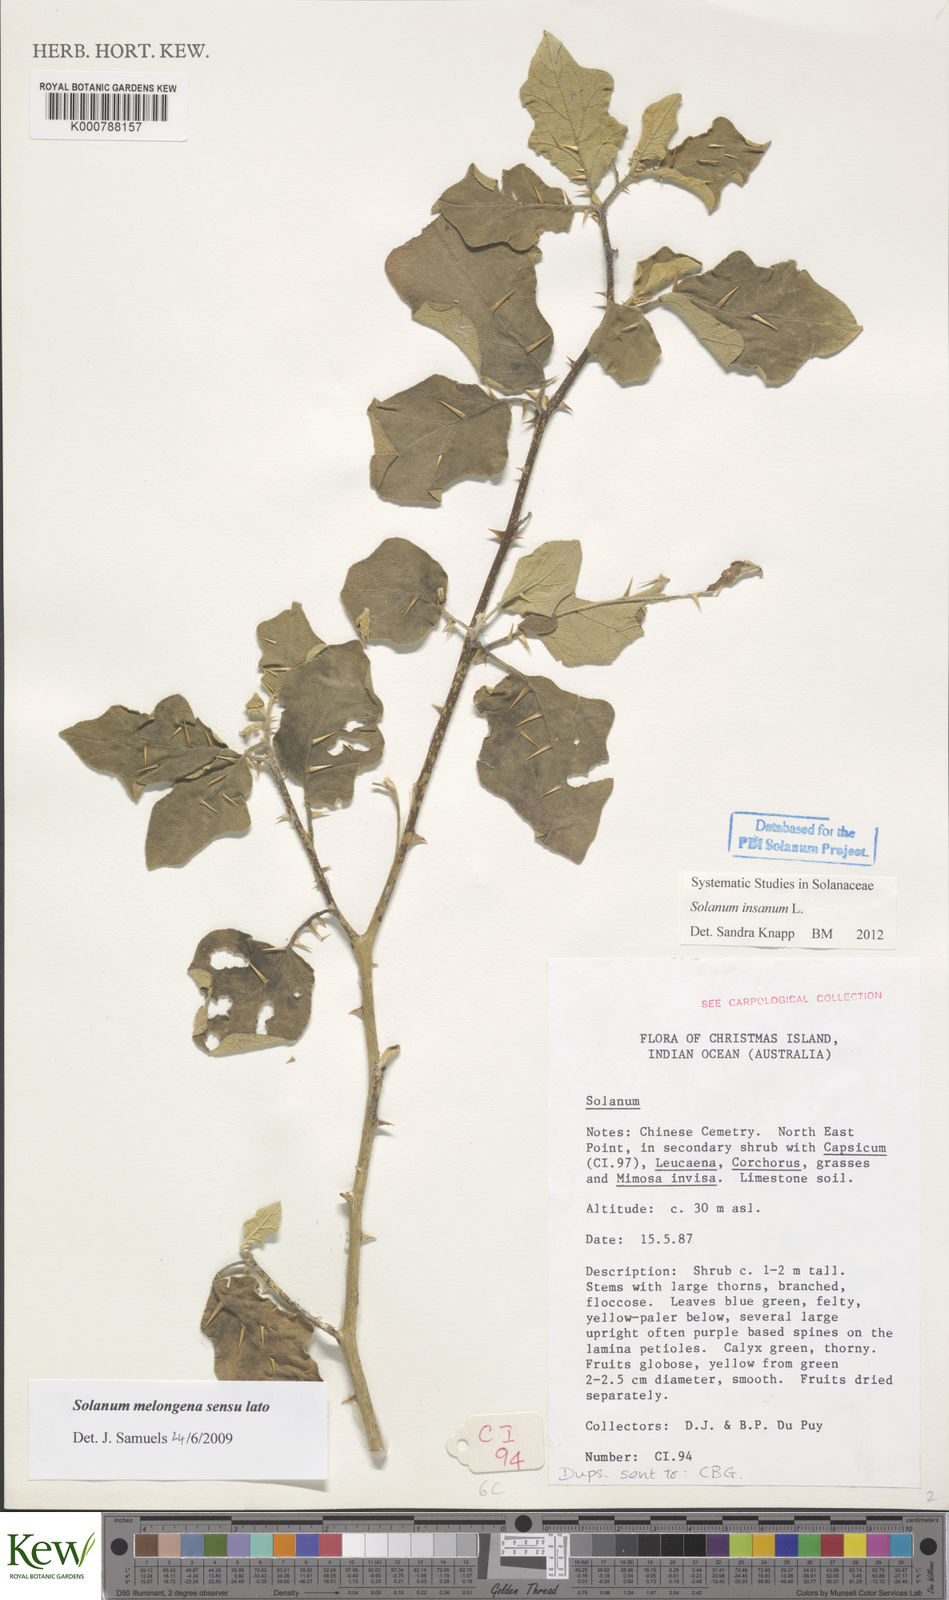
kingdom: Plantae
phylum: Tracheophyta
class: Magnoliopsida
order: Solanales
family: Solanaceae
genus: Solanum
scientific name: Solanum insanum
